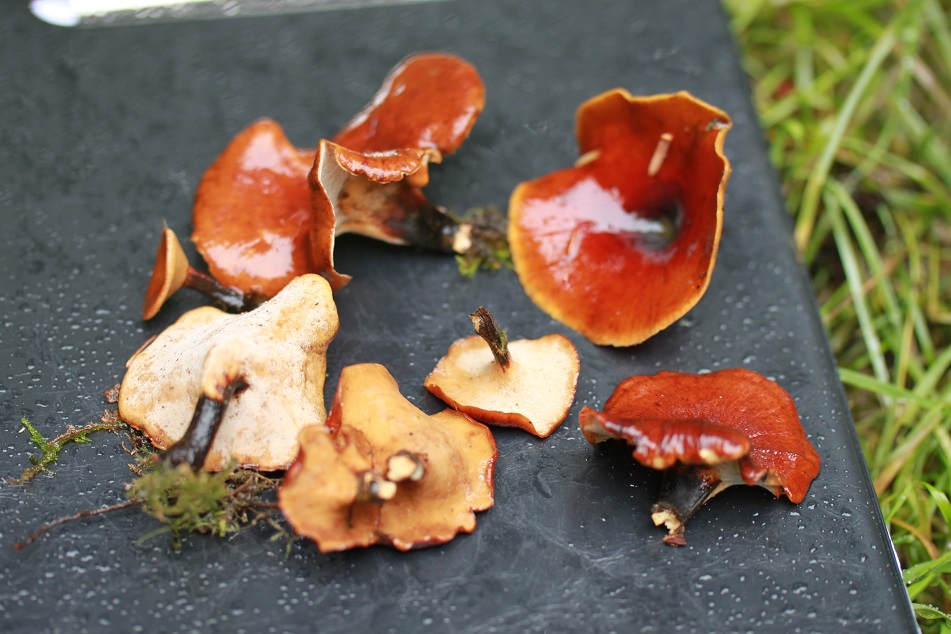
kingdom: Fungi
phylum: Basidiomycota
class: Agaricomycetes
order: Polyporales
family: Polyporaceae
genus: Picipes
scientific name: Picipes tubaeformis
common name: trompet-stilkporesvamp
